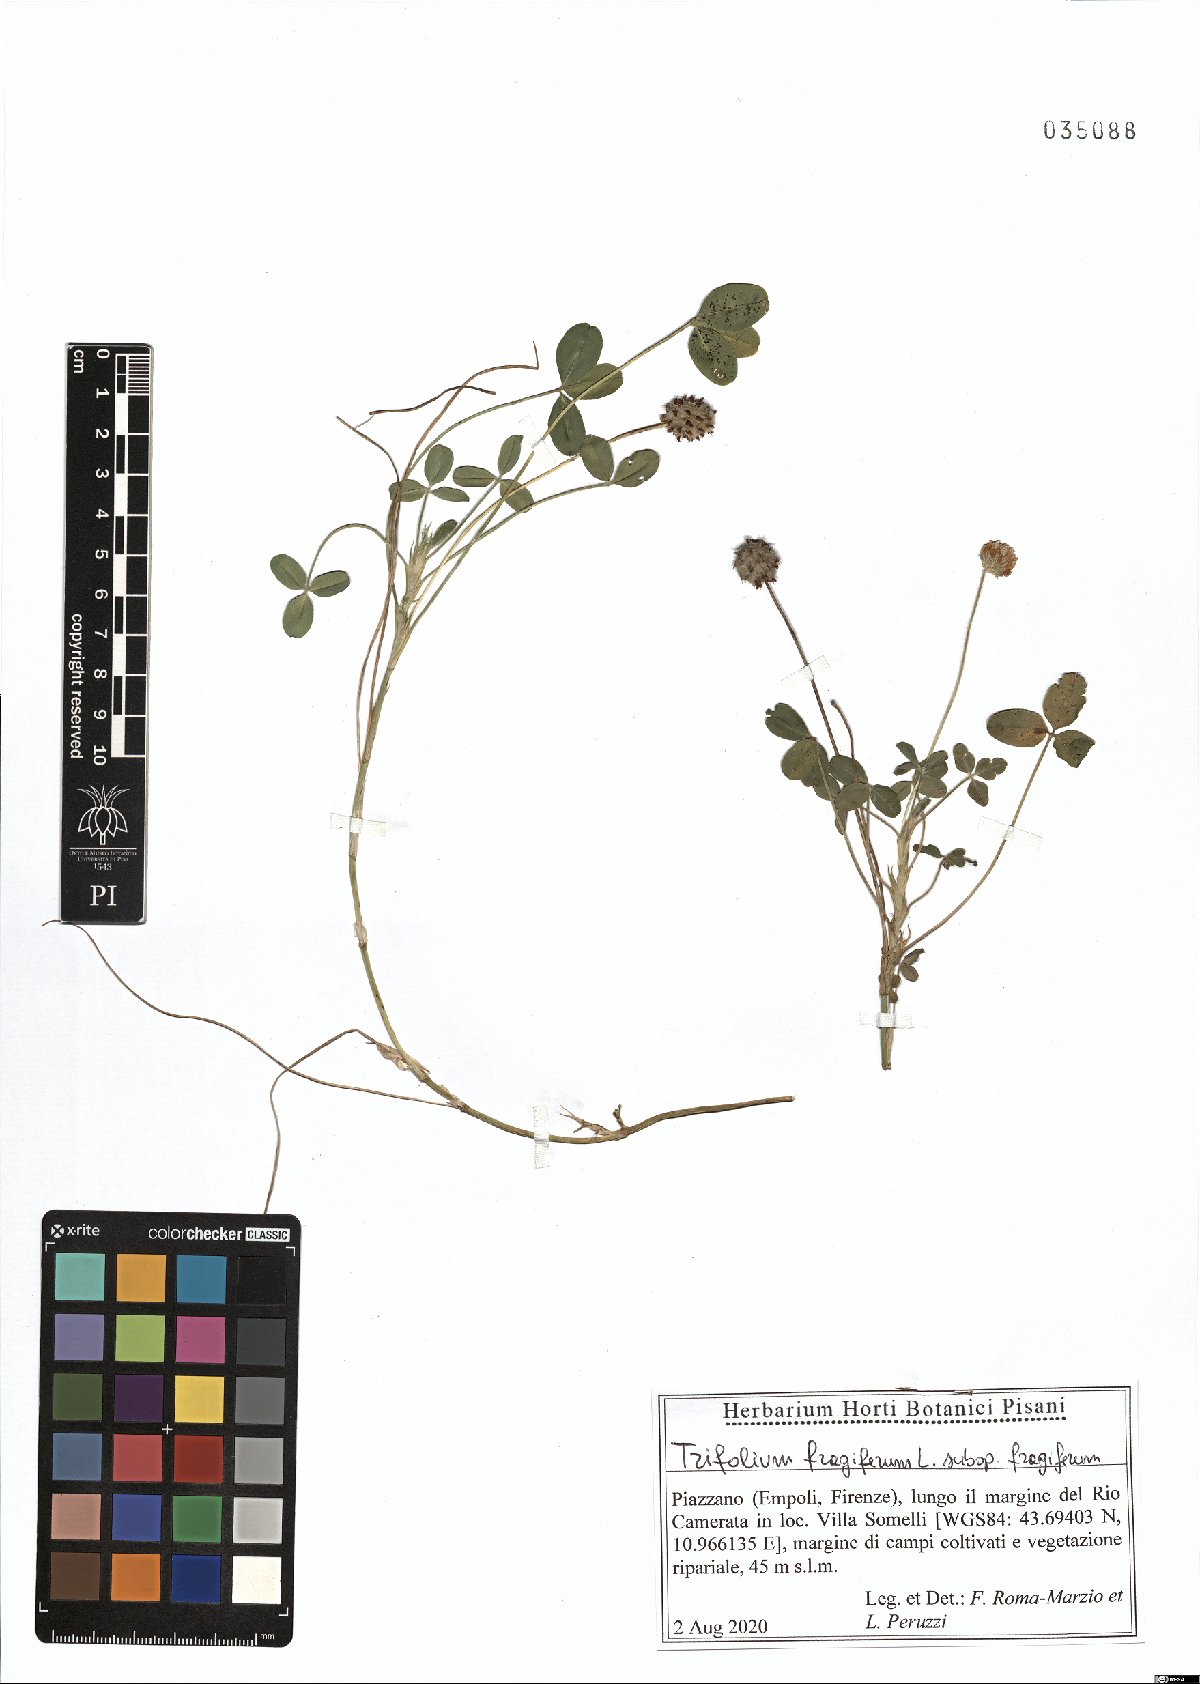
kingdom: Plantae
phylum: Tracheophyta
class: Magnoliopsida
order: Fabales
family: Fabaceae
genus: Trifolium
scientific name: Trifolium fragiferum
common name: Strawberry clover
